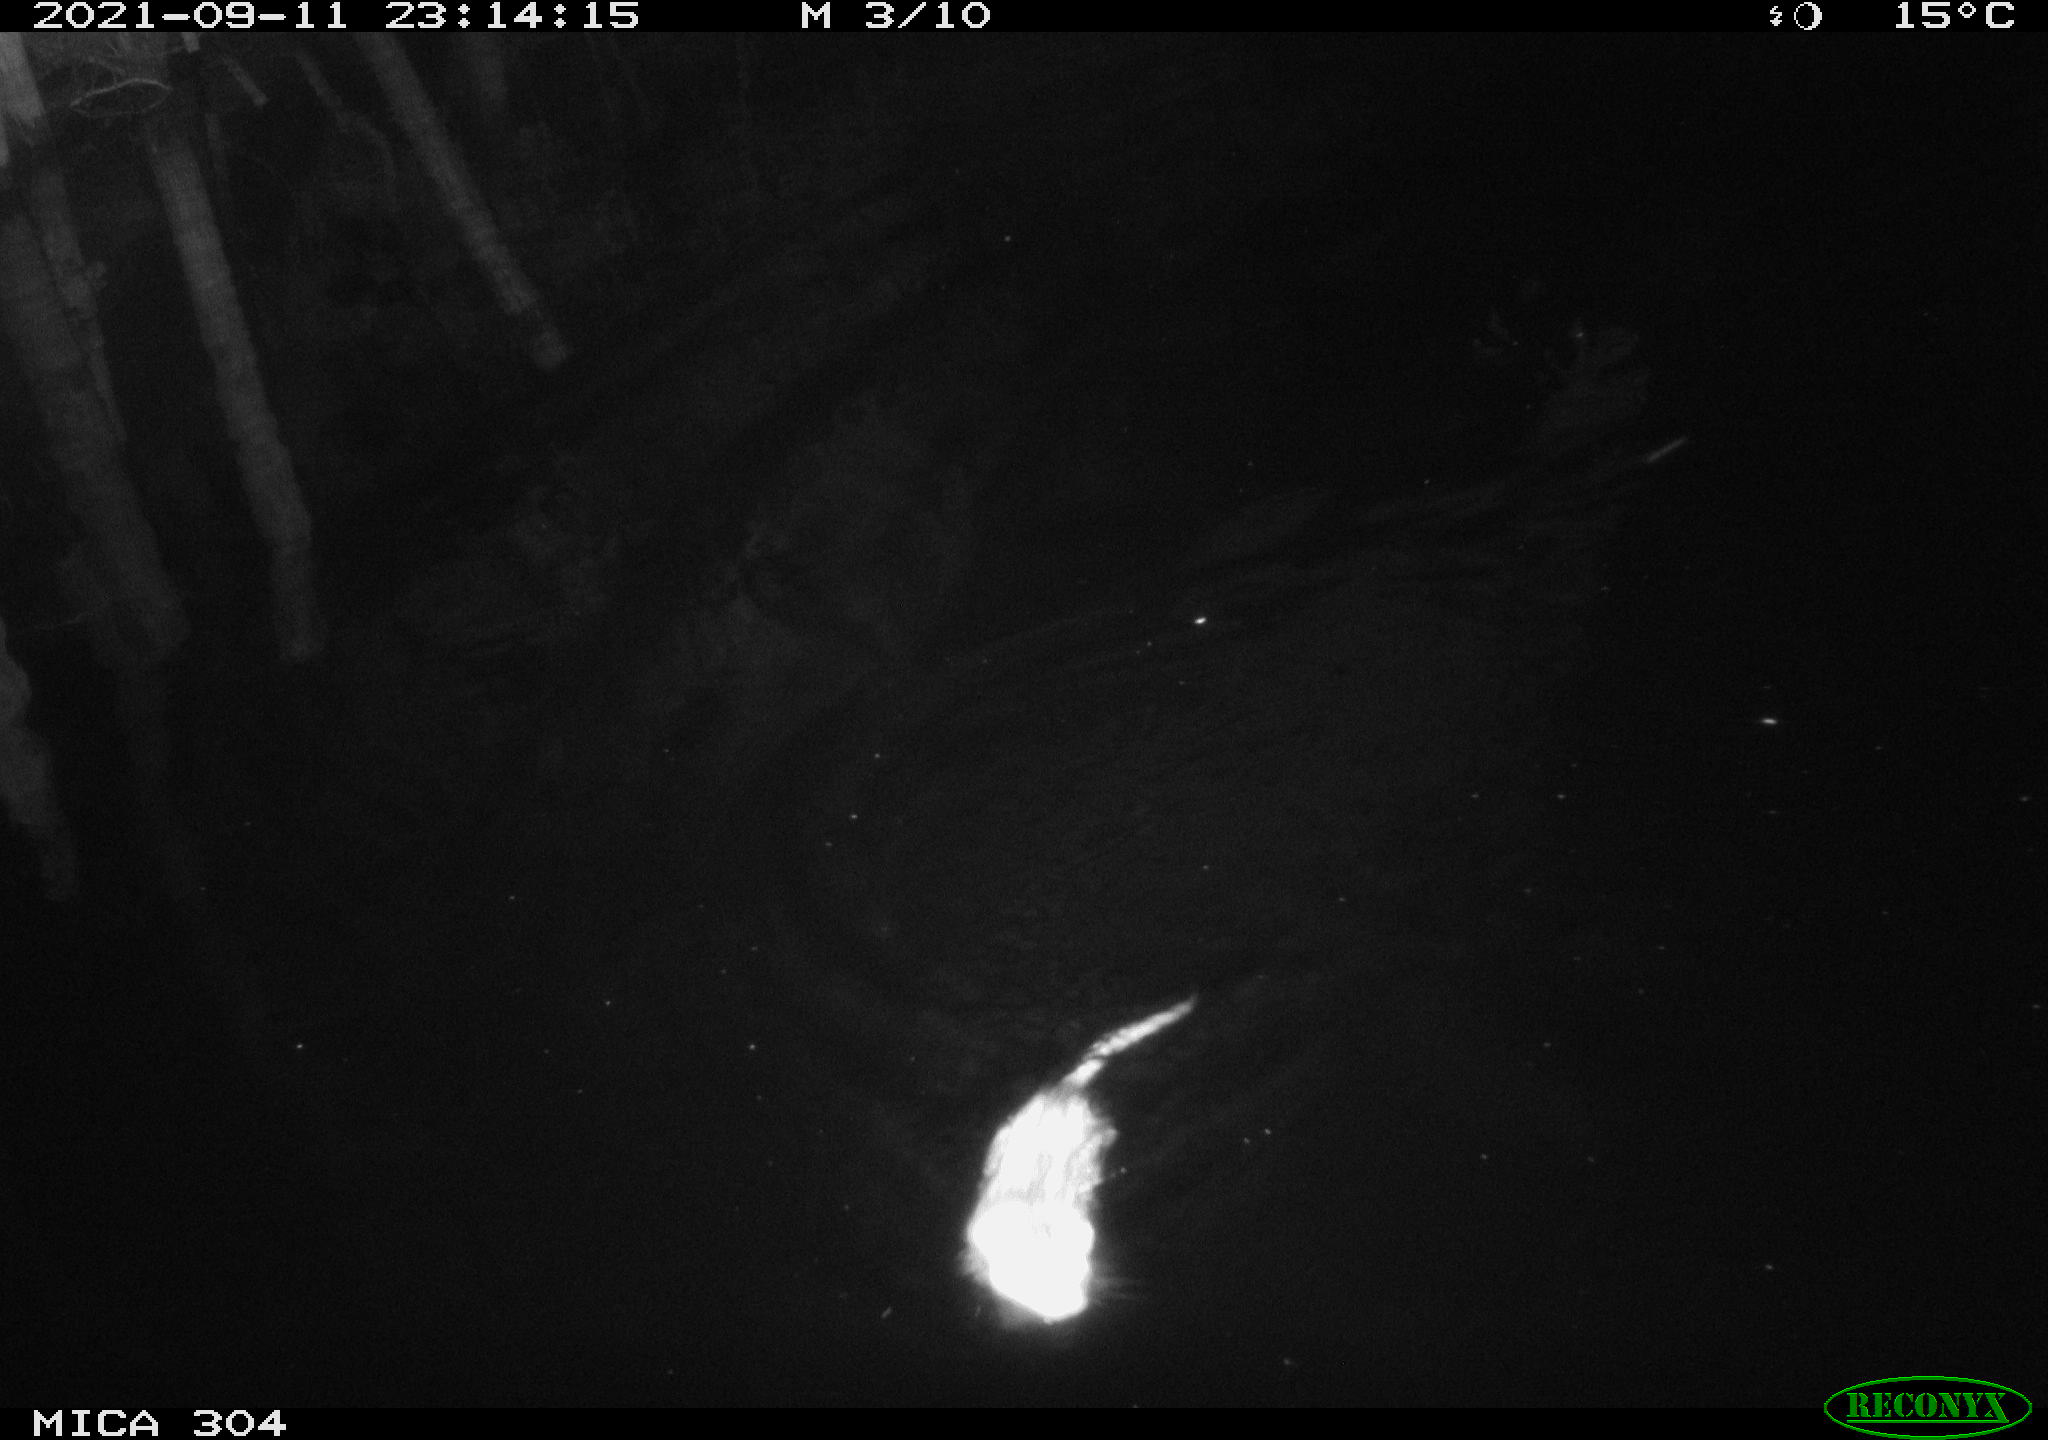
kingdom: Animalia
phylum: Chordata
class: Mammalia
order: Rodentia
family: Muridae
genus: Rattus
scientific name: Rattus norvegicus
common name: Brown rat
